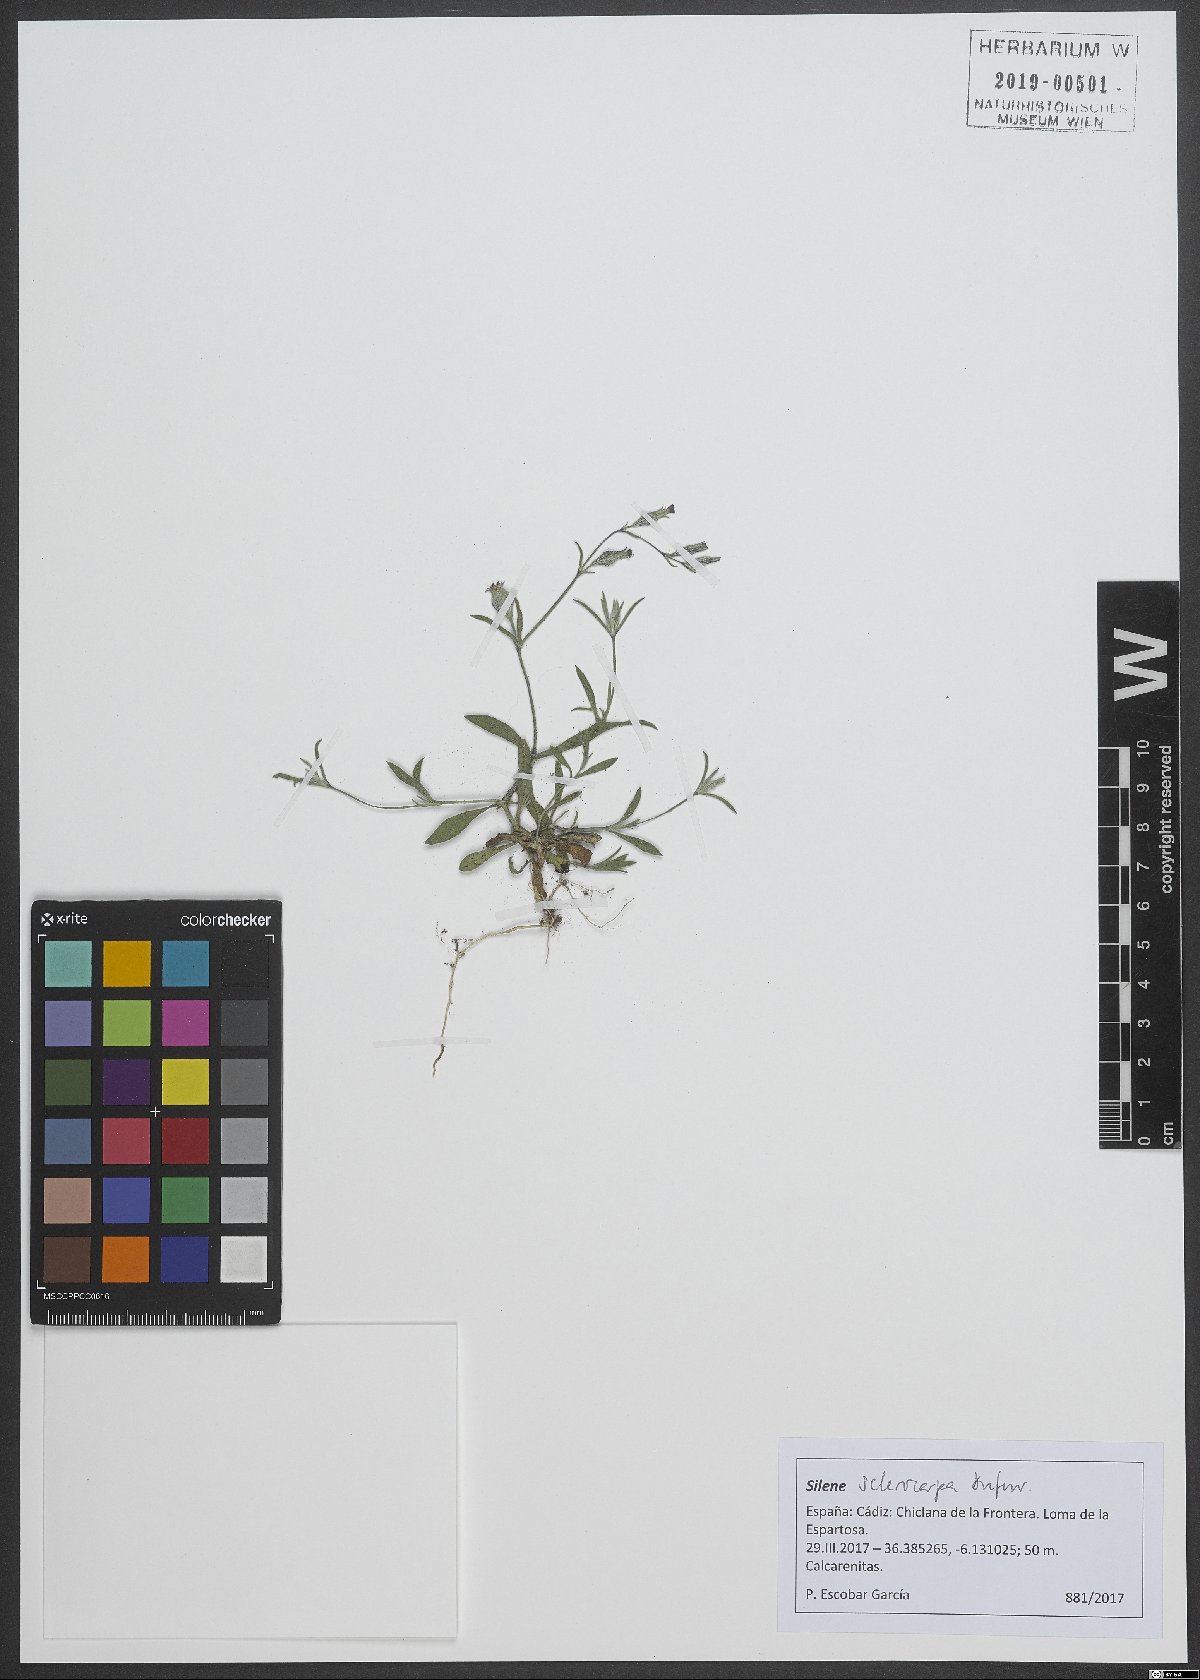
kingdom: Plantae
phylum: Tracheophyta
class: Magnoliopsida
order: Caryophyllales
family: Caryophyllaceae
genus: Silene
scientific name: Silene sclerocarpa
